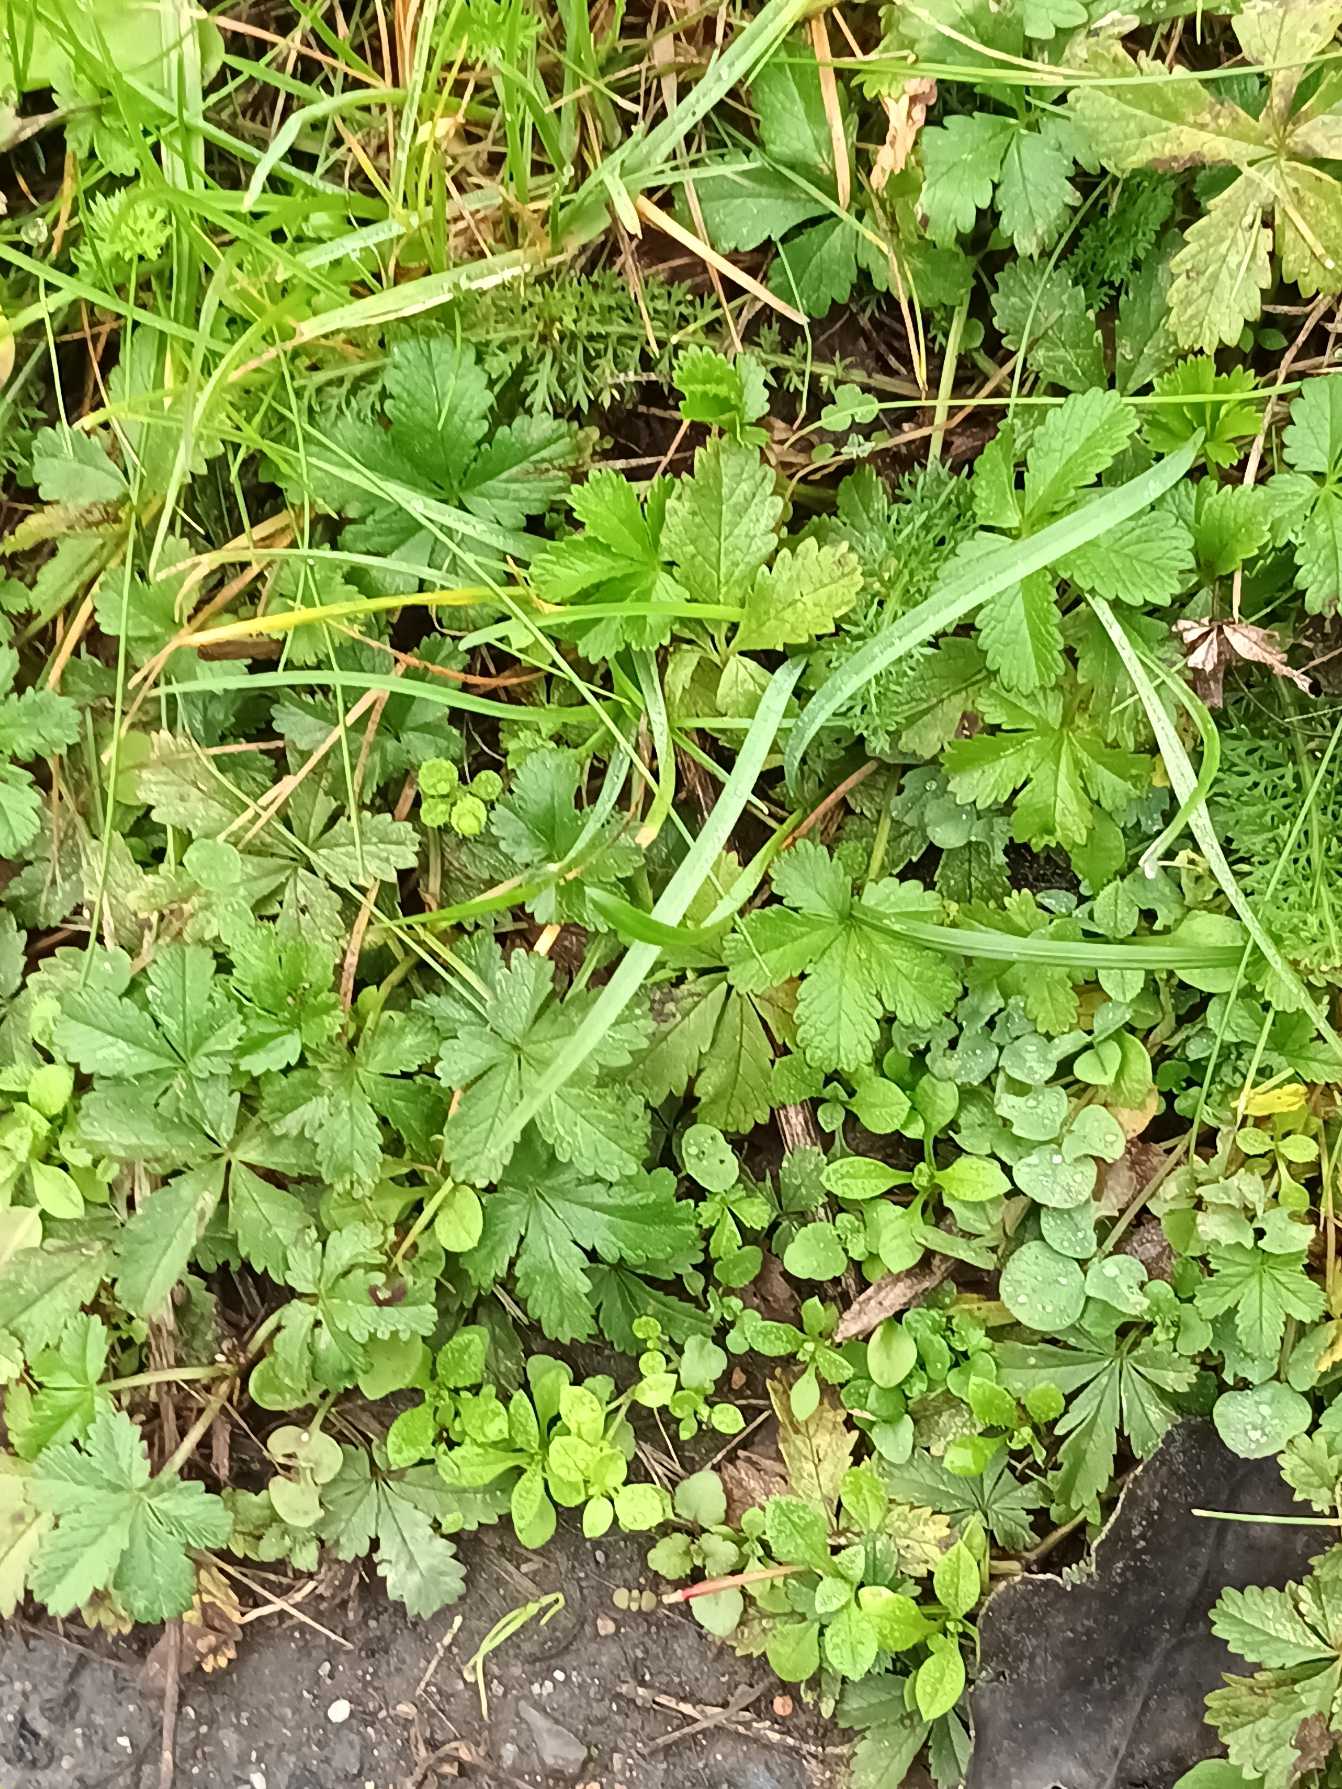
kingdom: Plantae
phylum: Tracheophyta
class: Magnoliopsida
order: Rosales
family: Rosaceae
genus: Potentilla
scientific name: Potentilla reptans
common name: Krybende potentil
